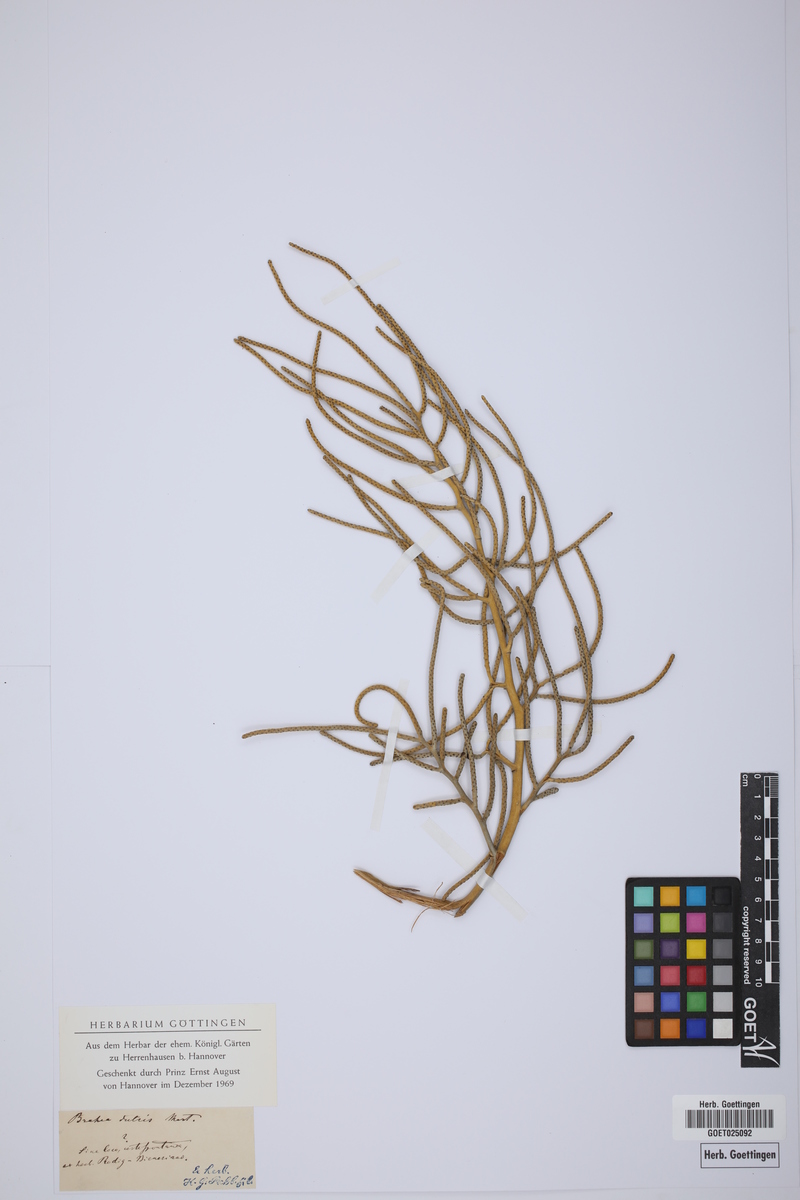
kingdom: Plantae
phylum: Tracheophyta
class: Liliopsida
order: Arecales
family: Arecaceae
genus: Brahea
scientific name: Brahea dulcis
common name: Apak palm
